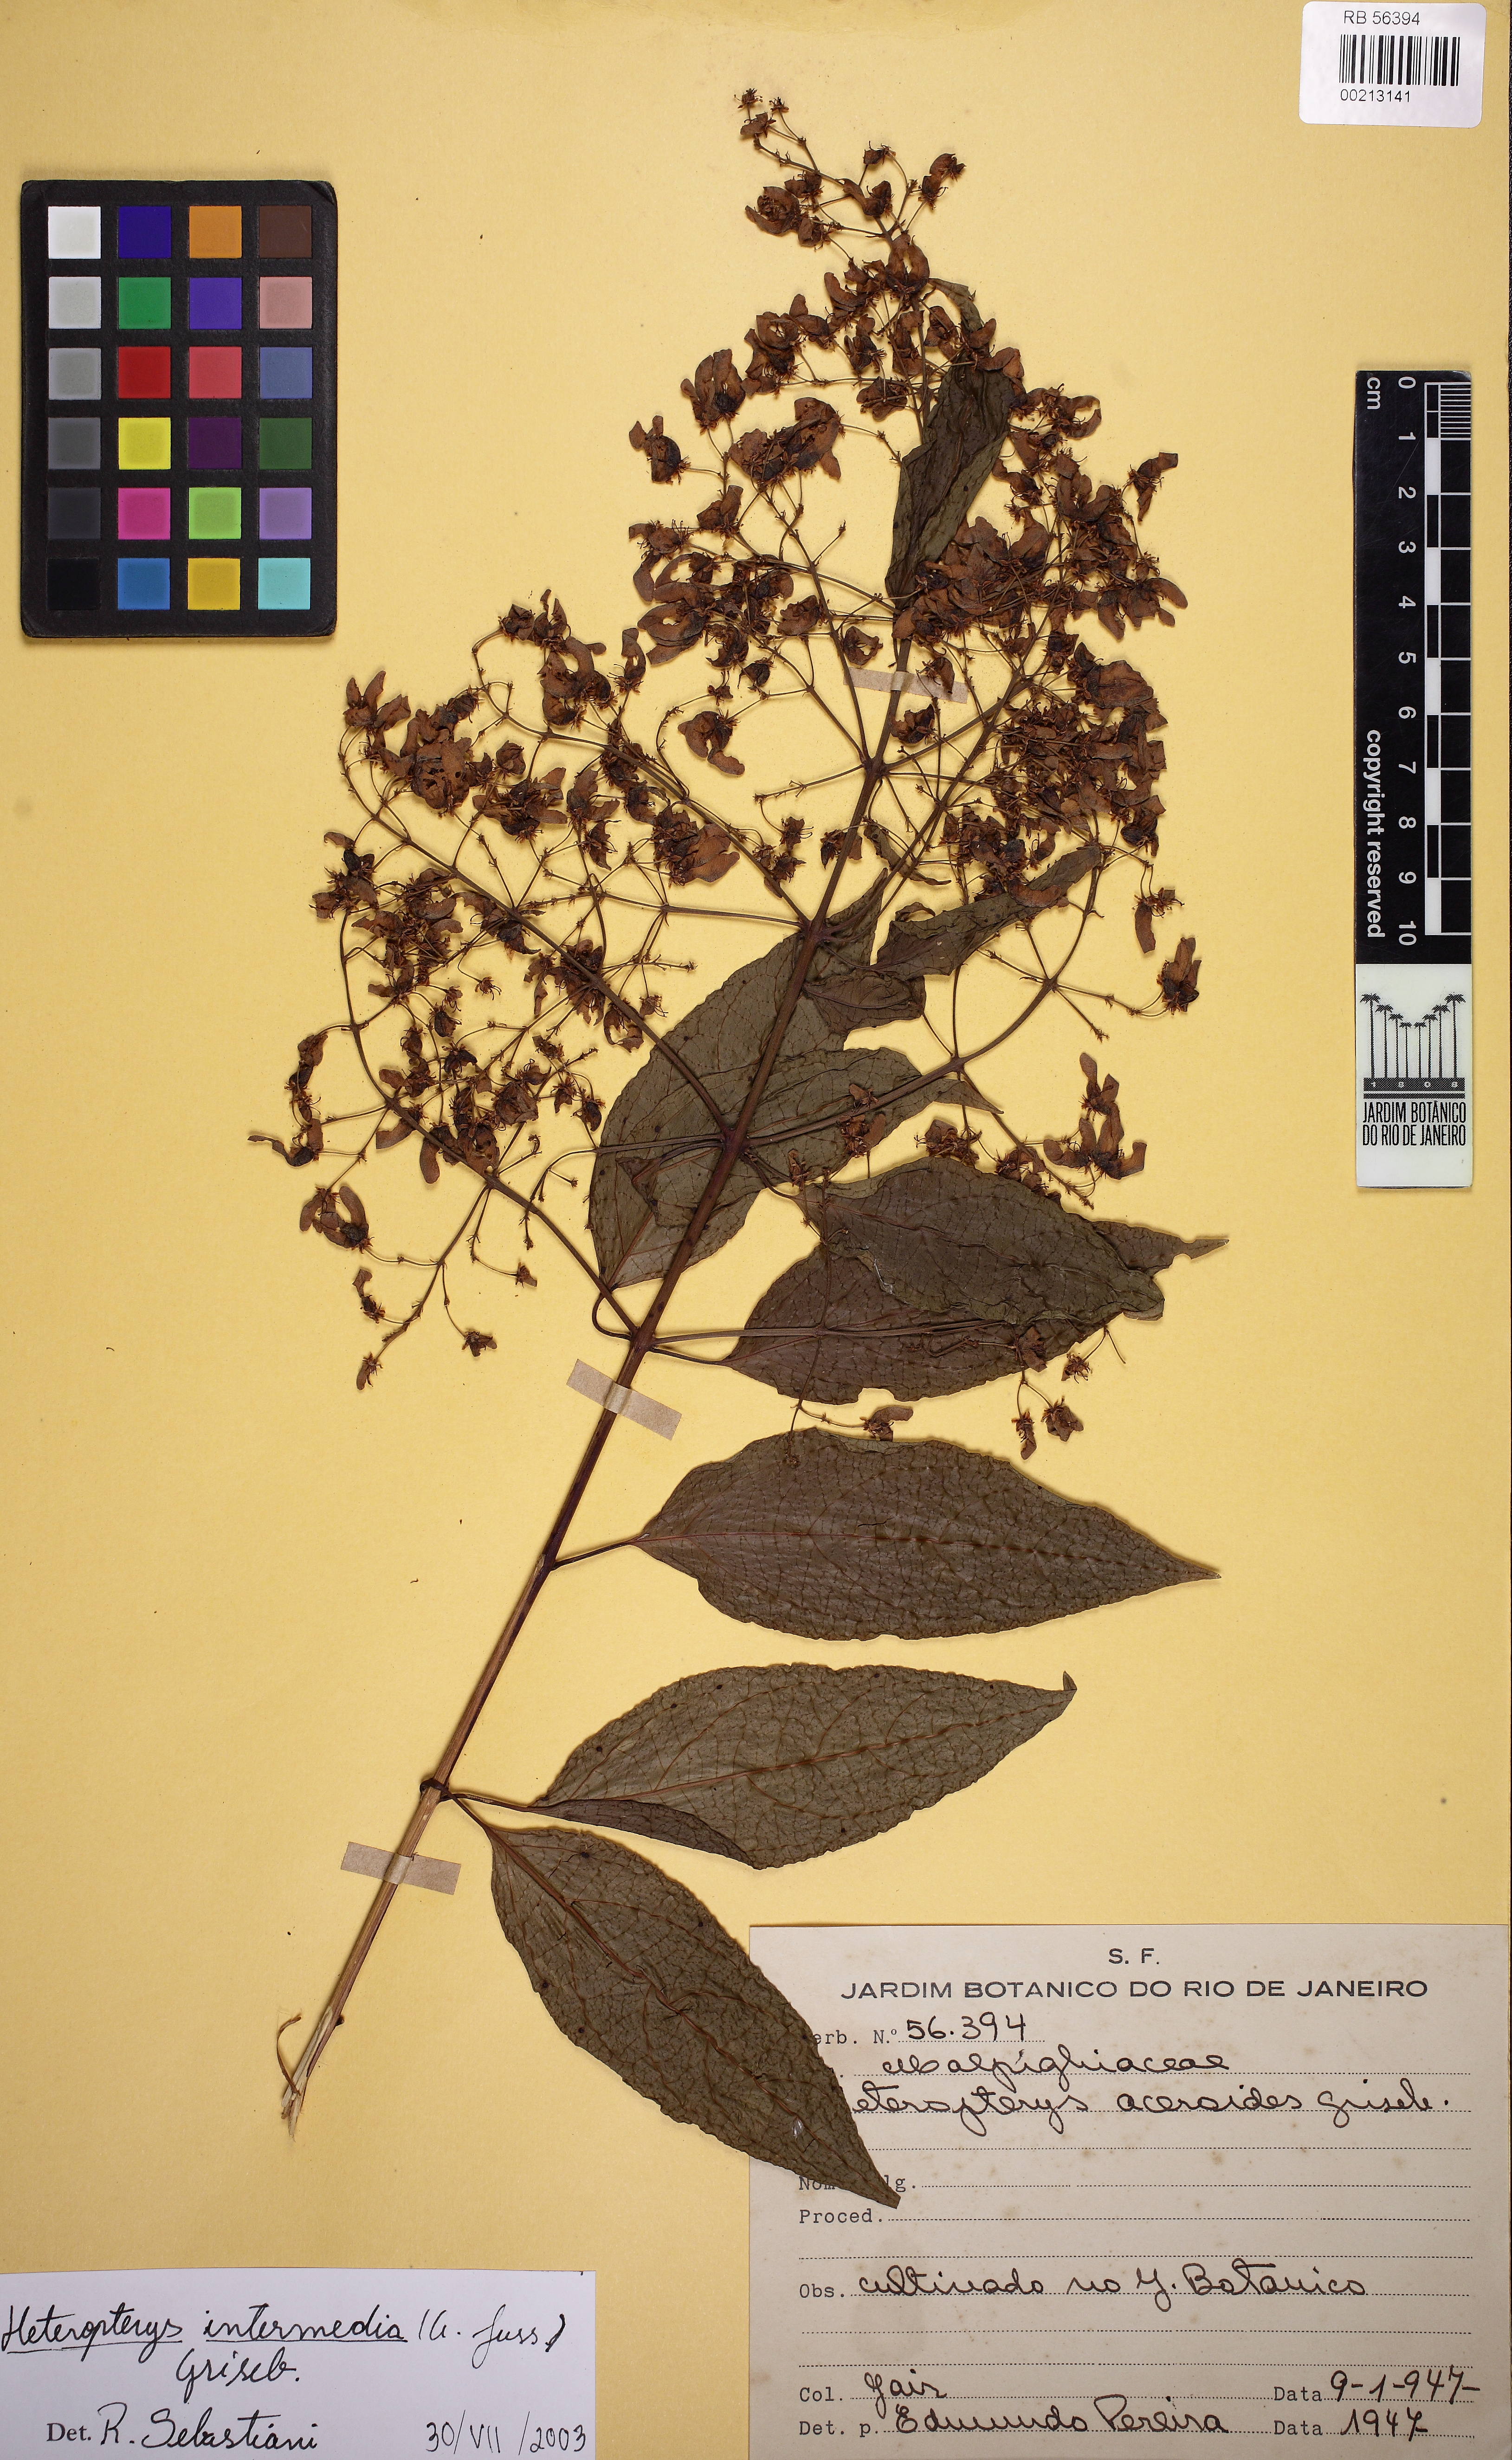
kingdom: Plantae
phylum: Tracheophyta
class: Magnoliopsida
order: Malpighiales
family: Malpighiaceae
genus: Heteropterys
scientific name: Heteropterys intermedia
